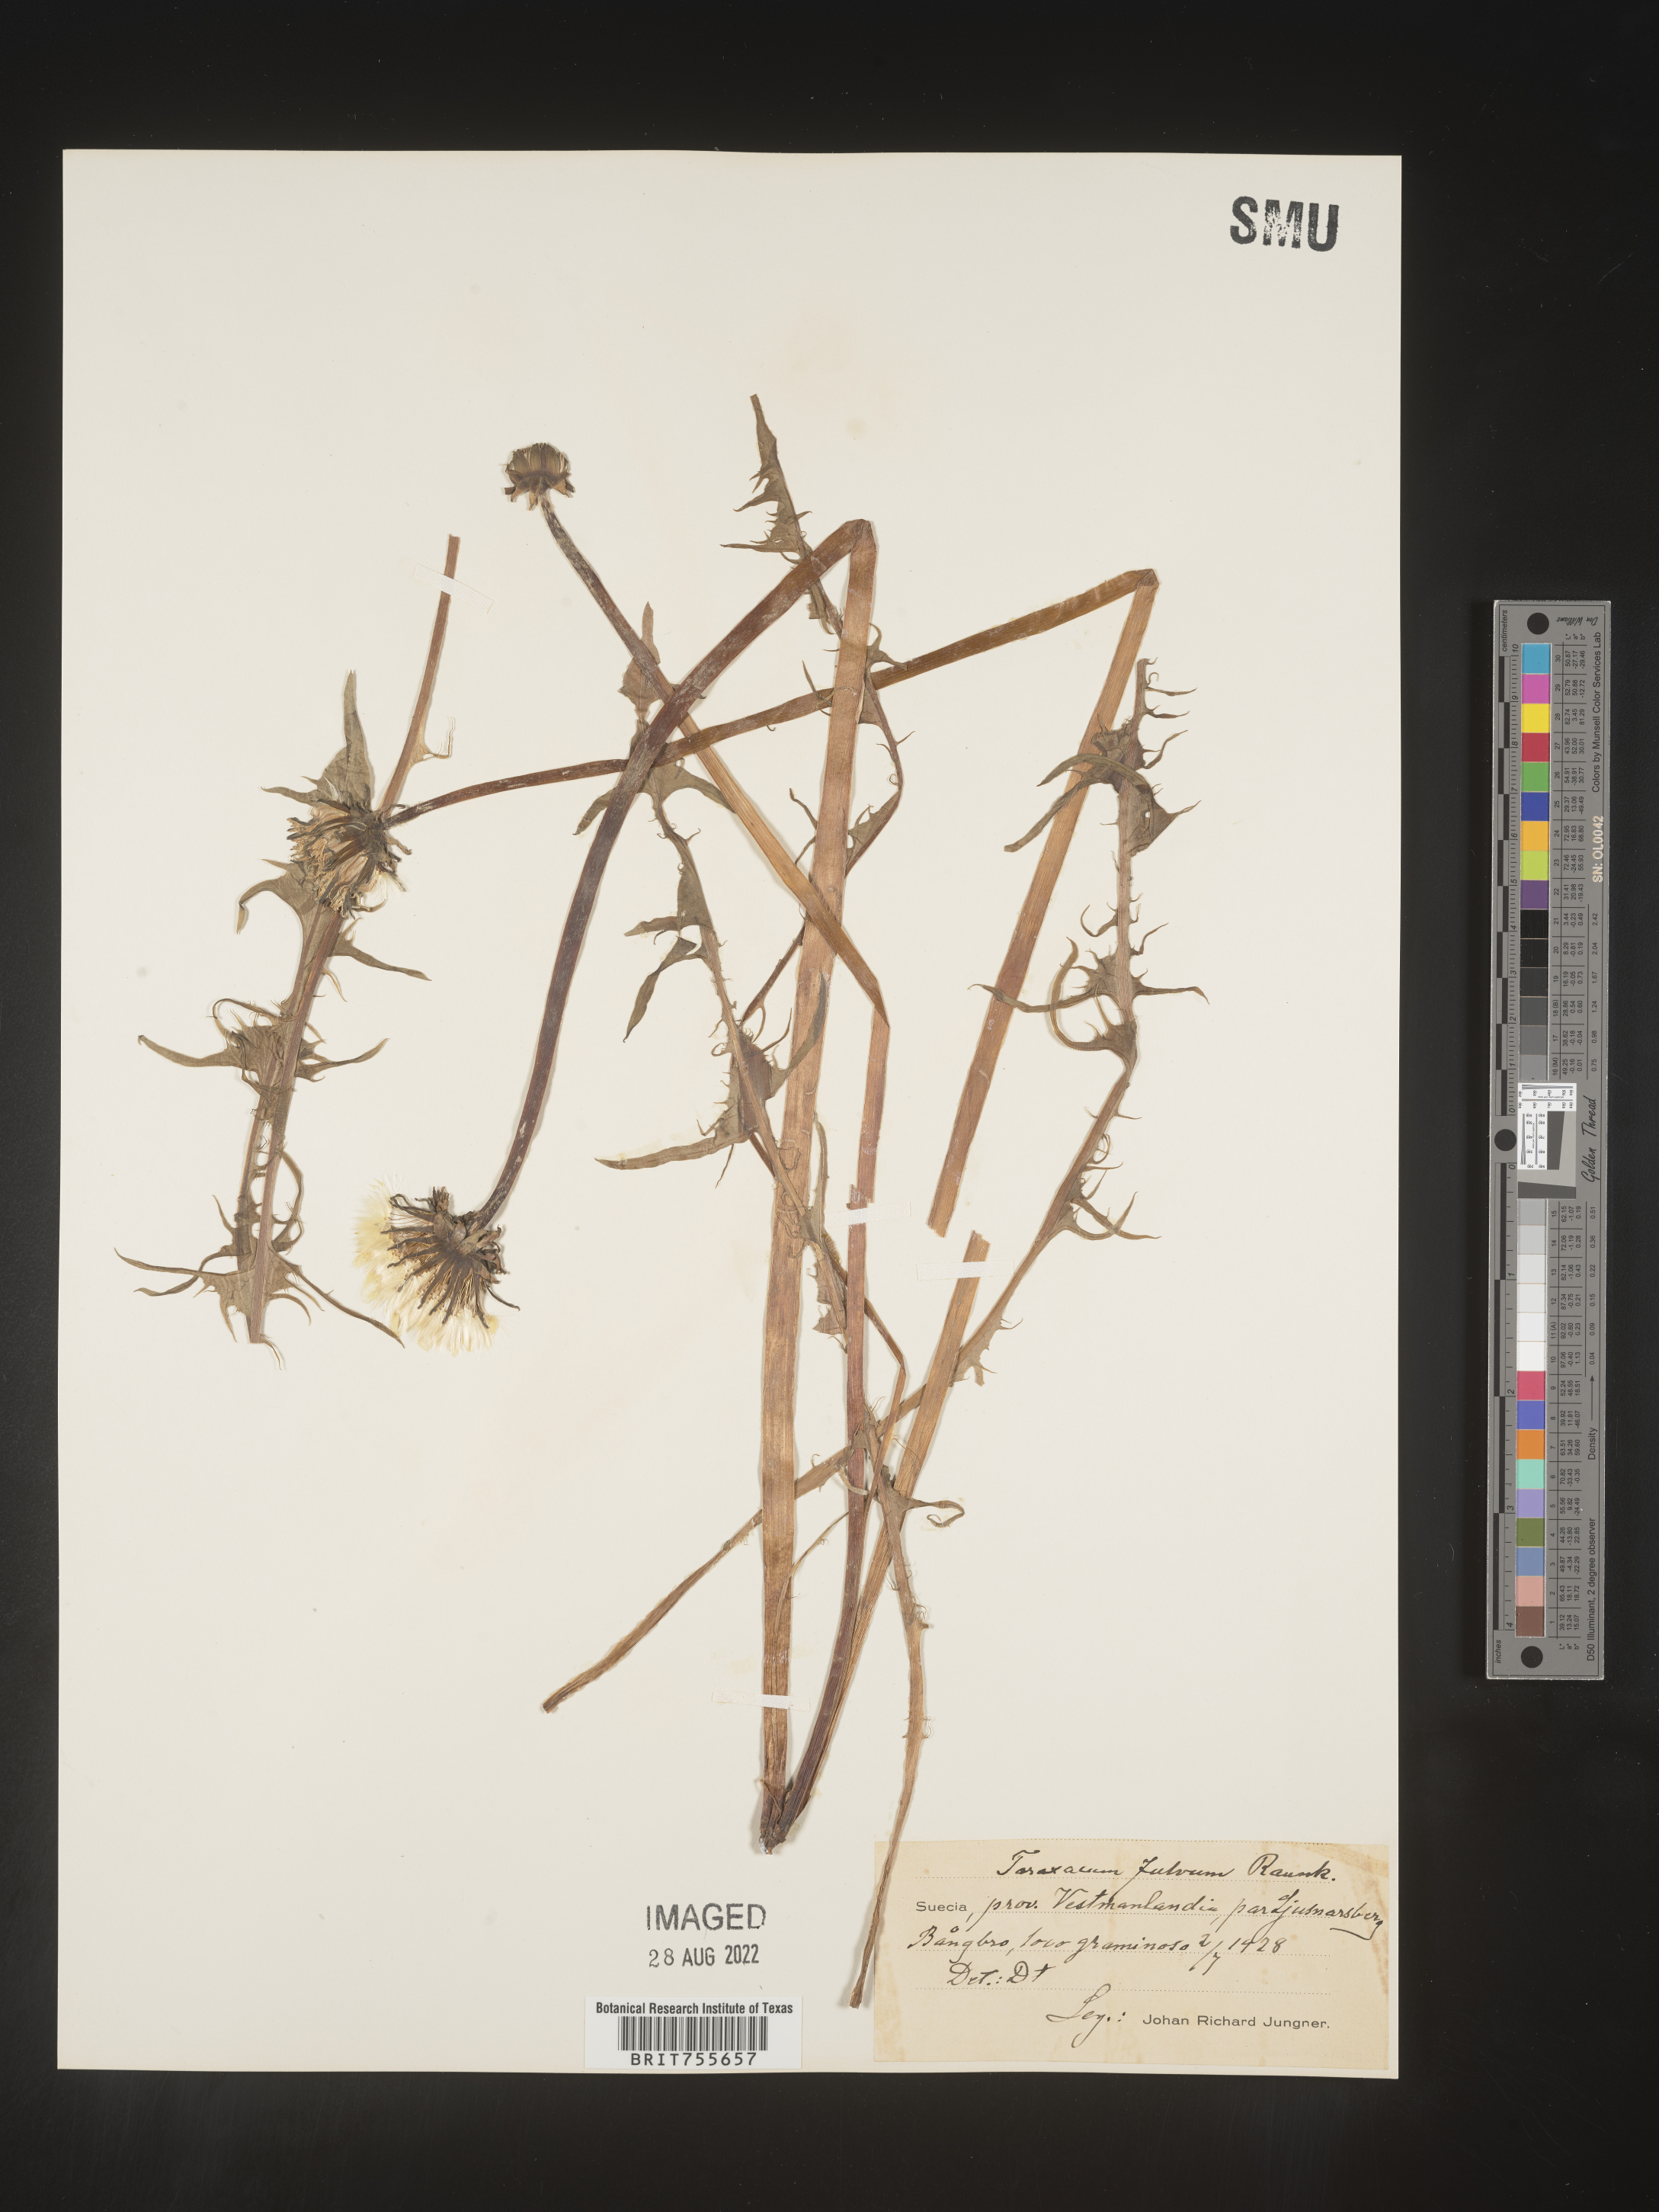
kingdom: Plantae
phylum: Tracheophyta
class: Magnoliopsida
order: Asterales
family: Asteraceae
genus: Taraxacum
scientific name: Taraxacum
